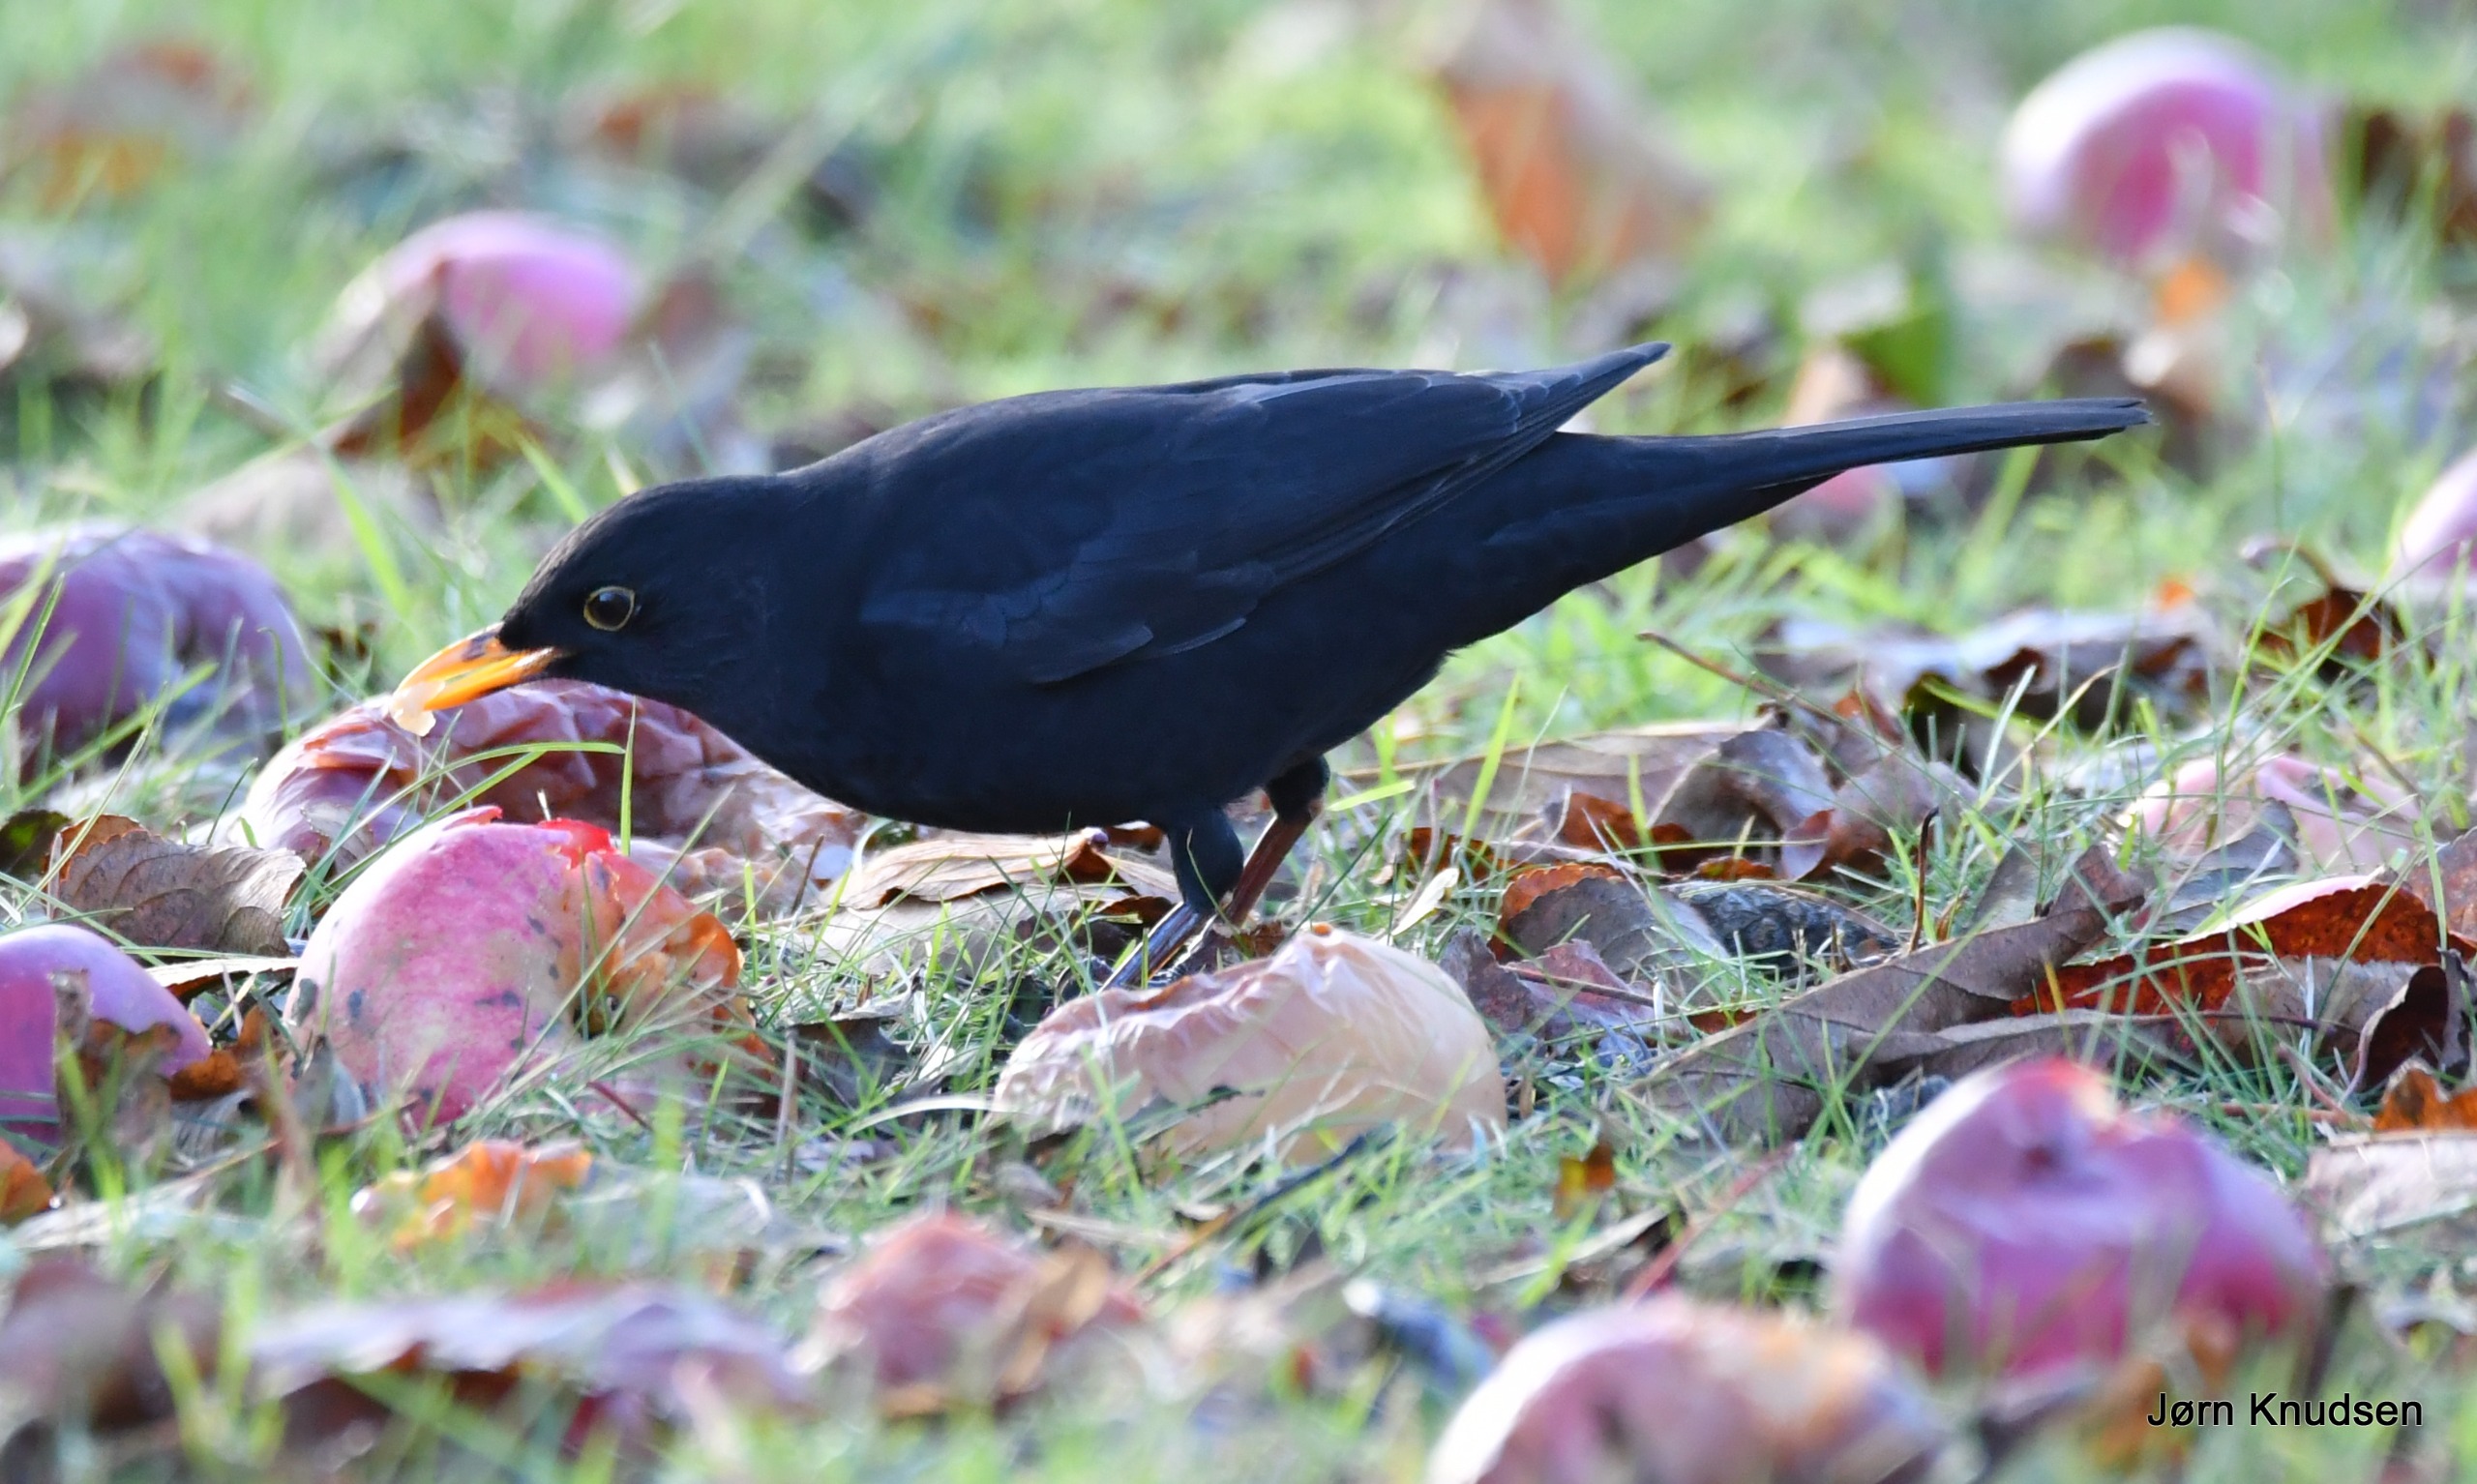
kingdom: Animalia
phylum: Chordata
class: Aves
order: Passeriformes
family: Turdidae
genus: Turdus
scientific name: Turdus merula
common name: Solsort
